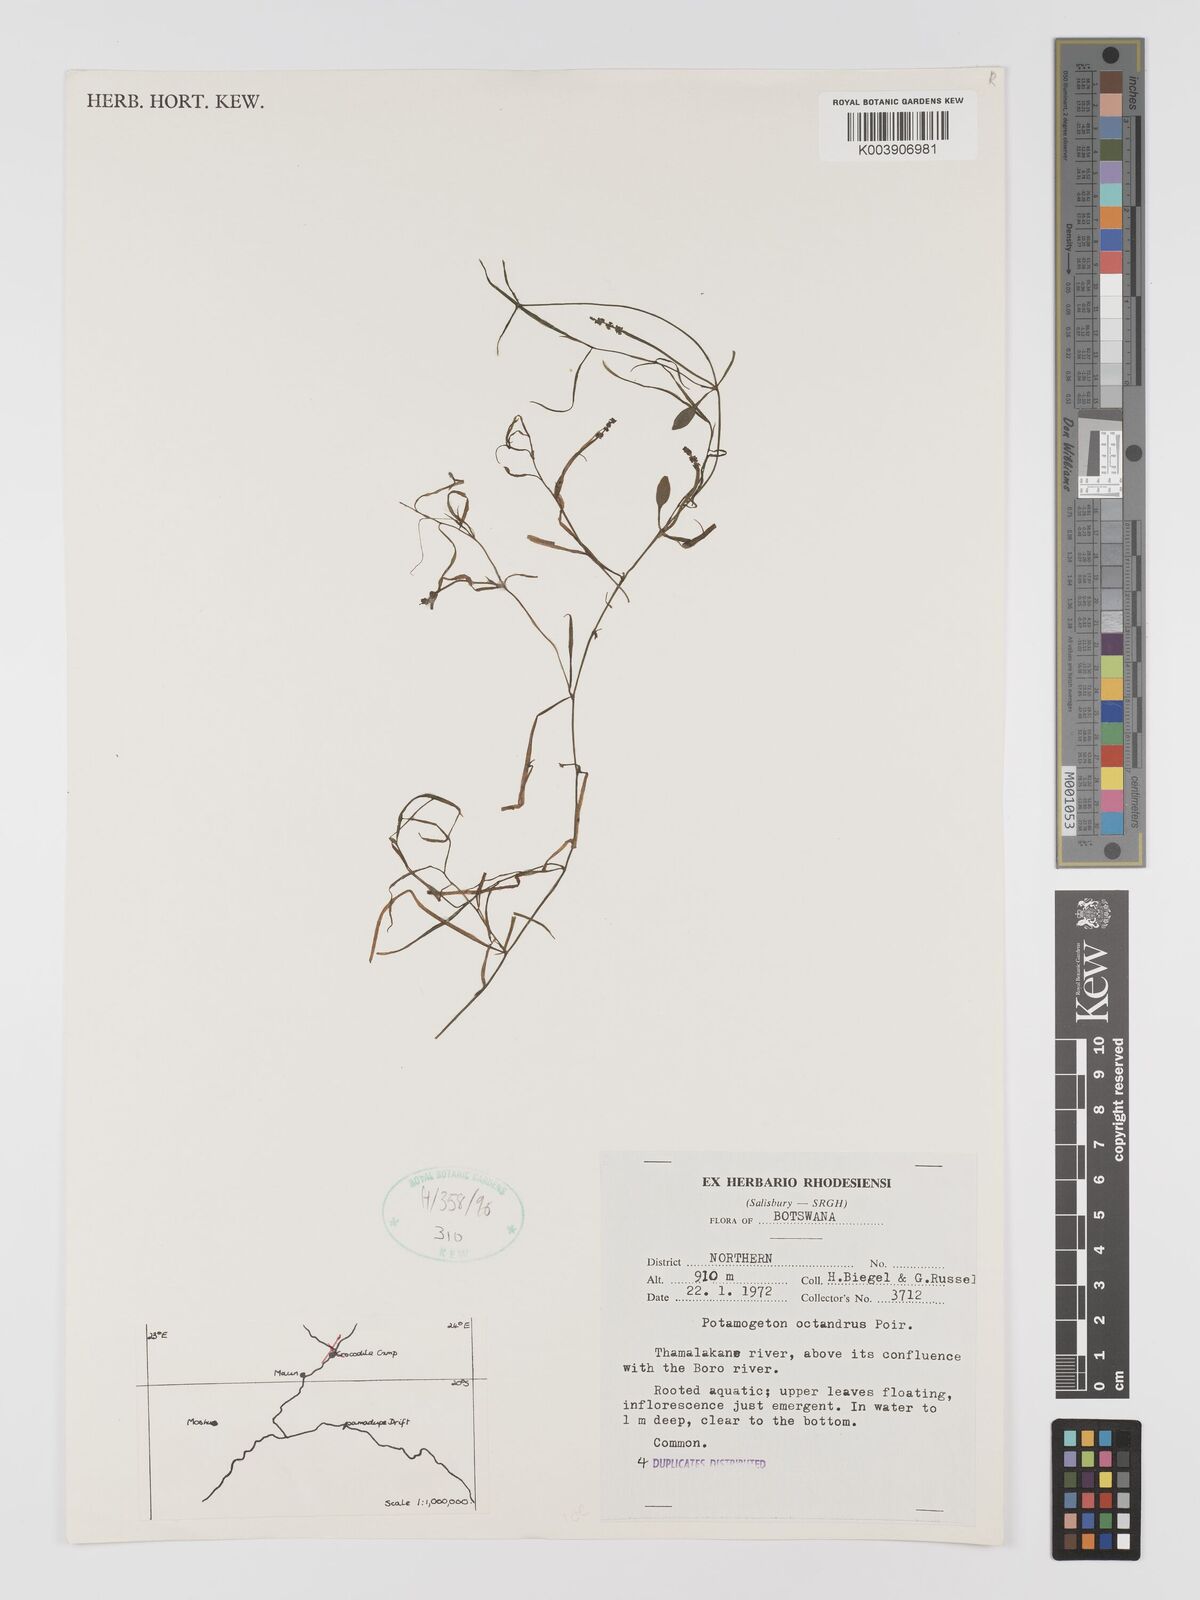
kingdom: Plantae
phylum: Tracheophyta
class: Liliopsida
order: Alismatales
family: Potamogetonaceae
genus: Potamogeton
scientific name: Potamogeton octandrus
